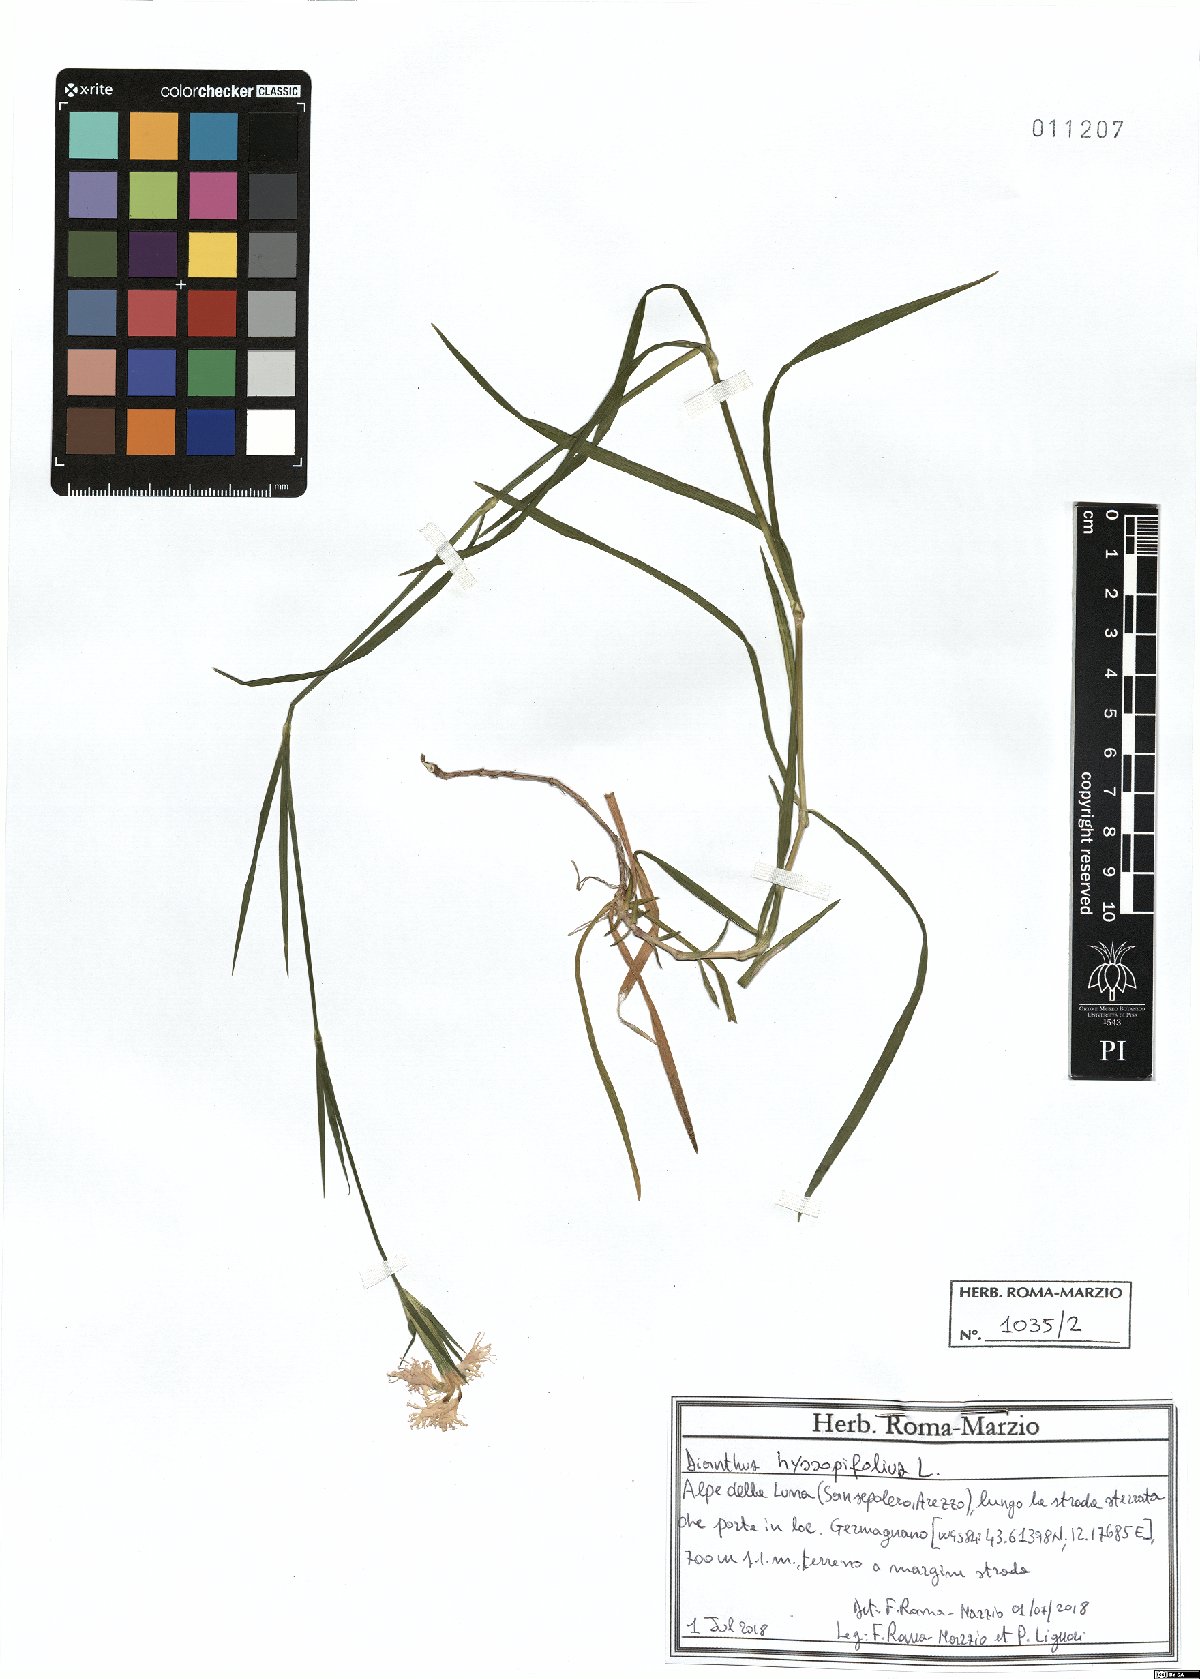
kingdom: Plantae
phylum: Tracheophyta
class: Magnoliopsida
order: Caryophyllales
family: Caryophyllaceae
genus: Dianthus
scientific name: Dianthus hyssopifolius
